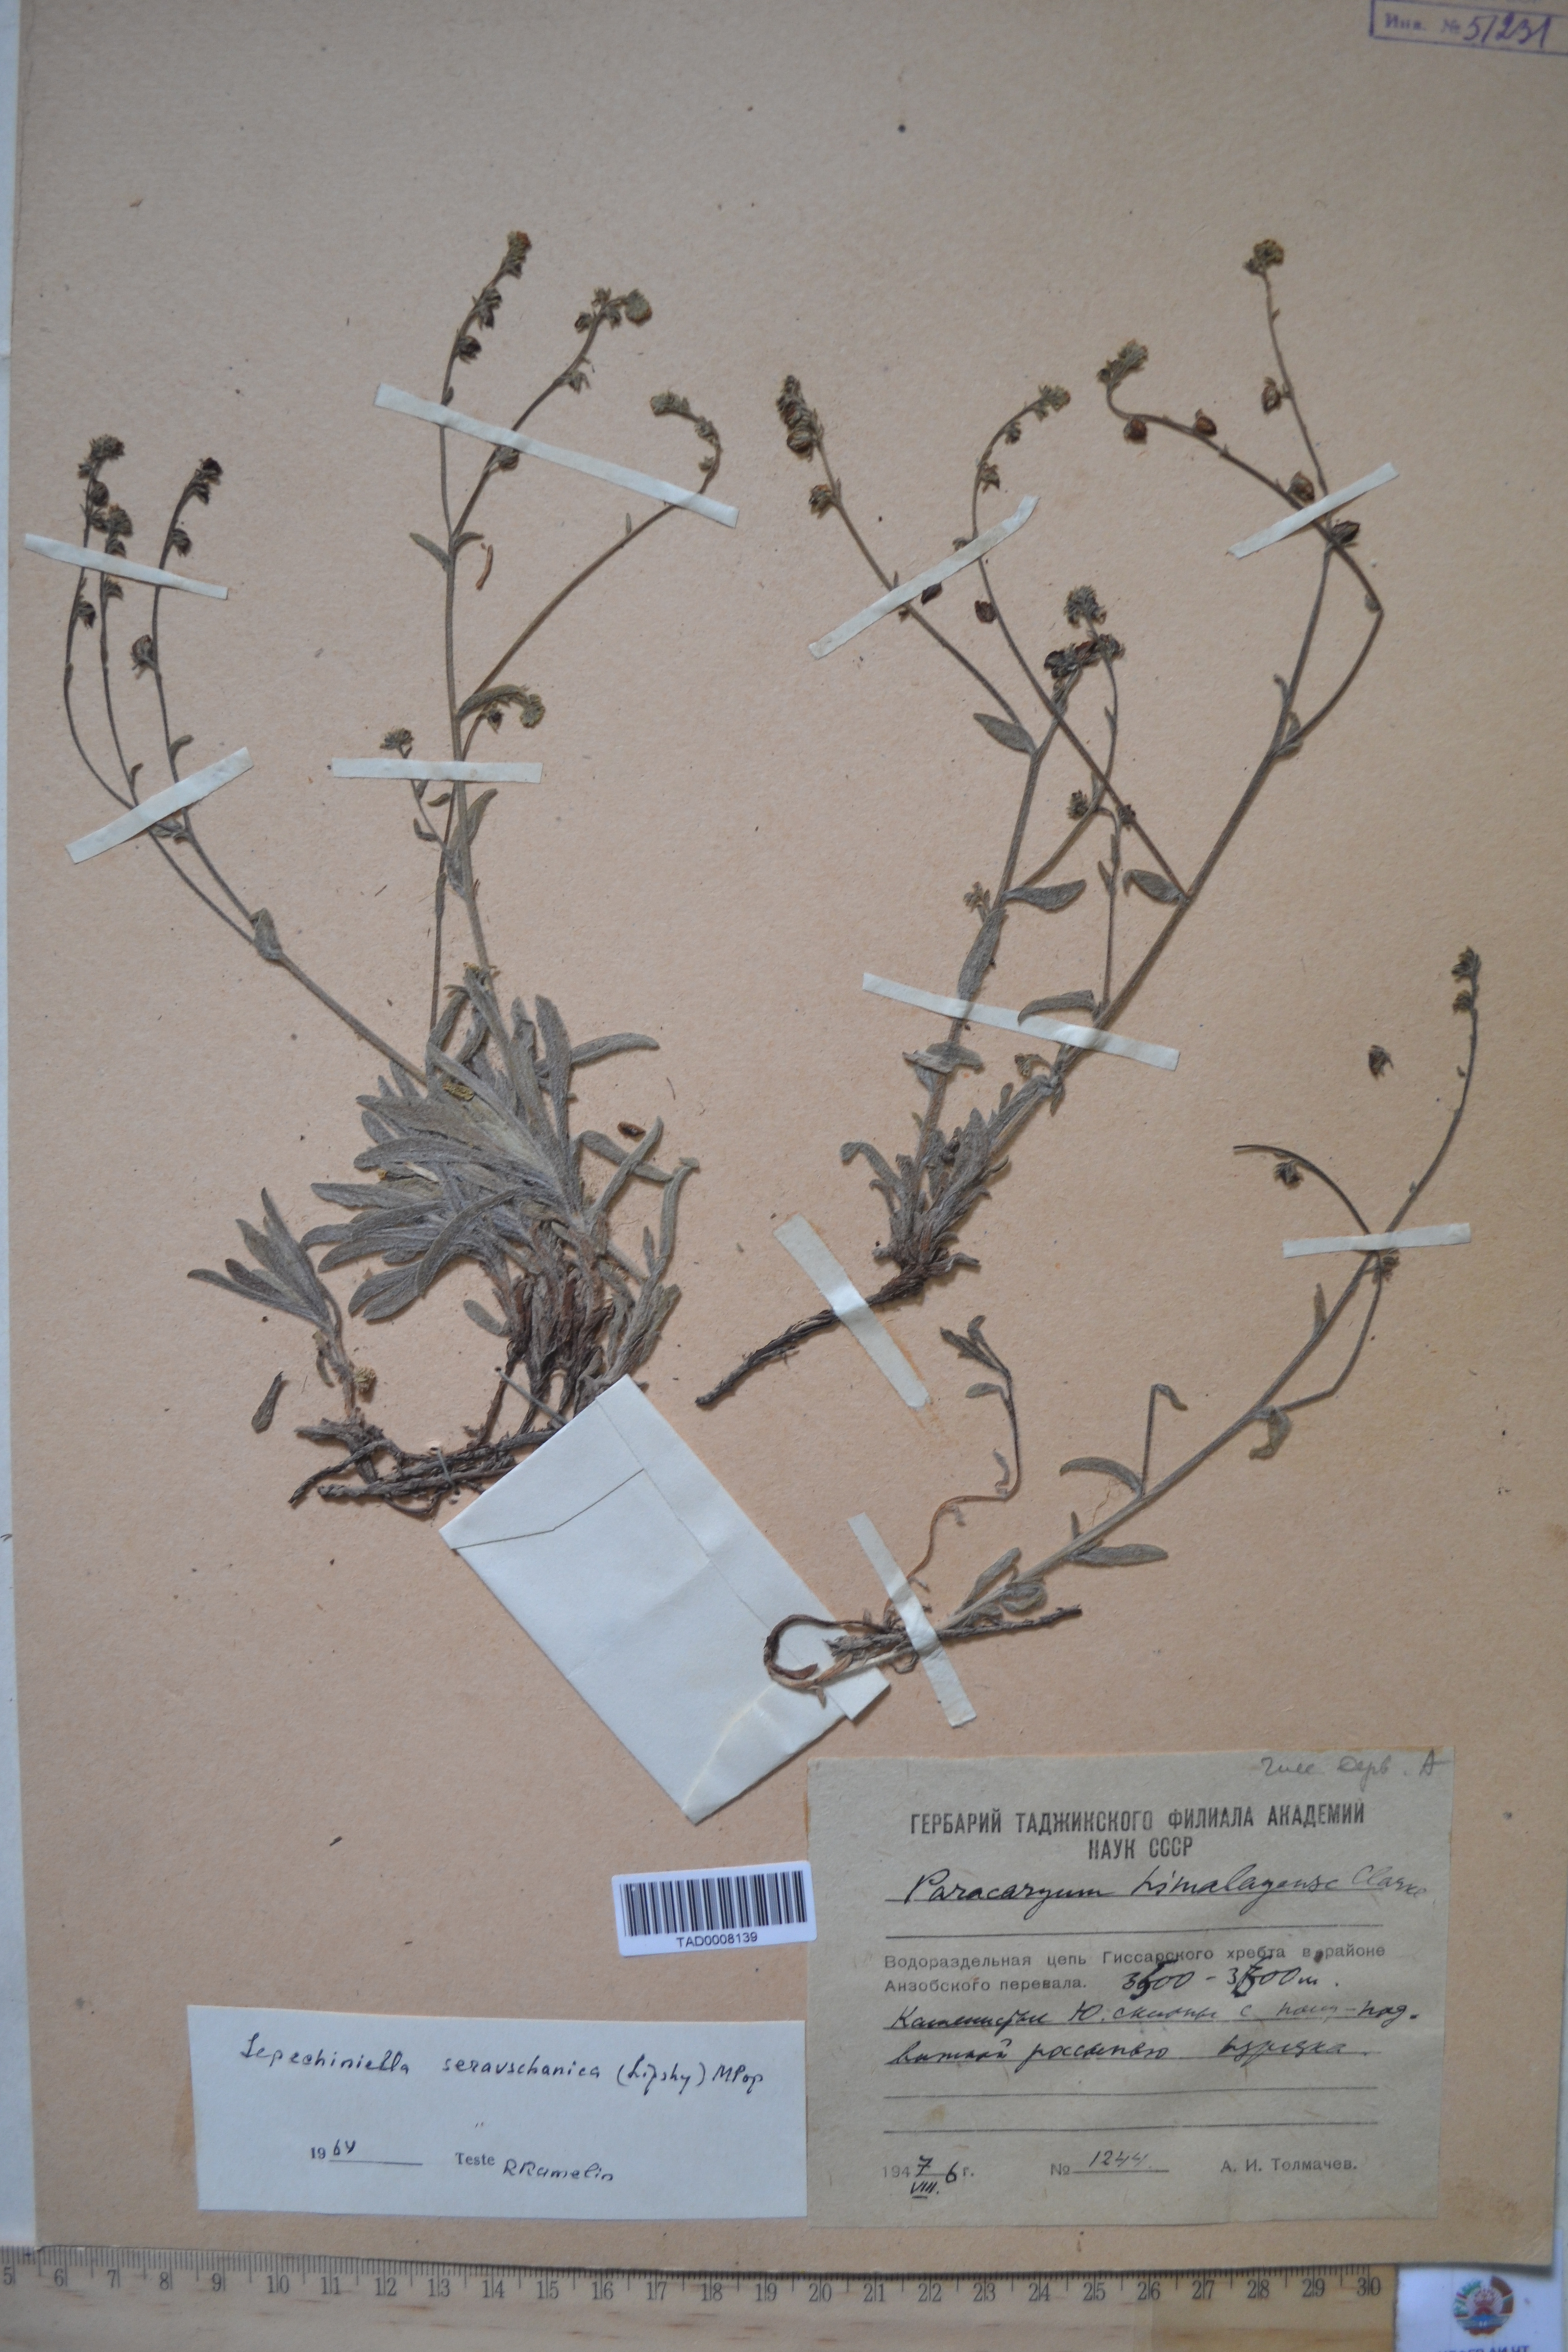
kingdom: Plantae
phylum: Tracheophyta
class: Magnoliopsida
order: Boraginales
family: Boraginaceae
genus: Paracaryum
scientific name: Paracaryum himalayense
